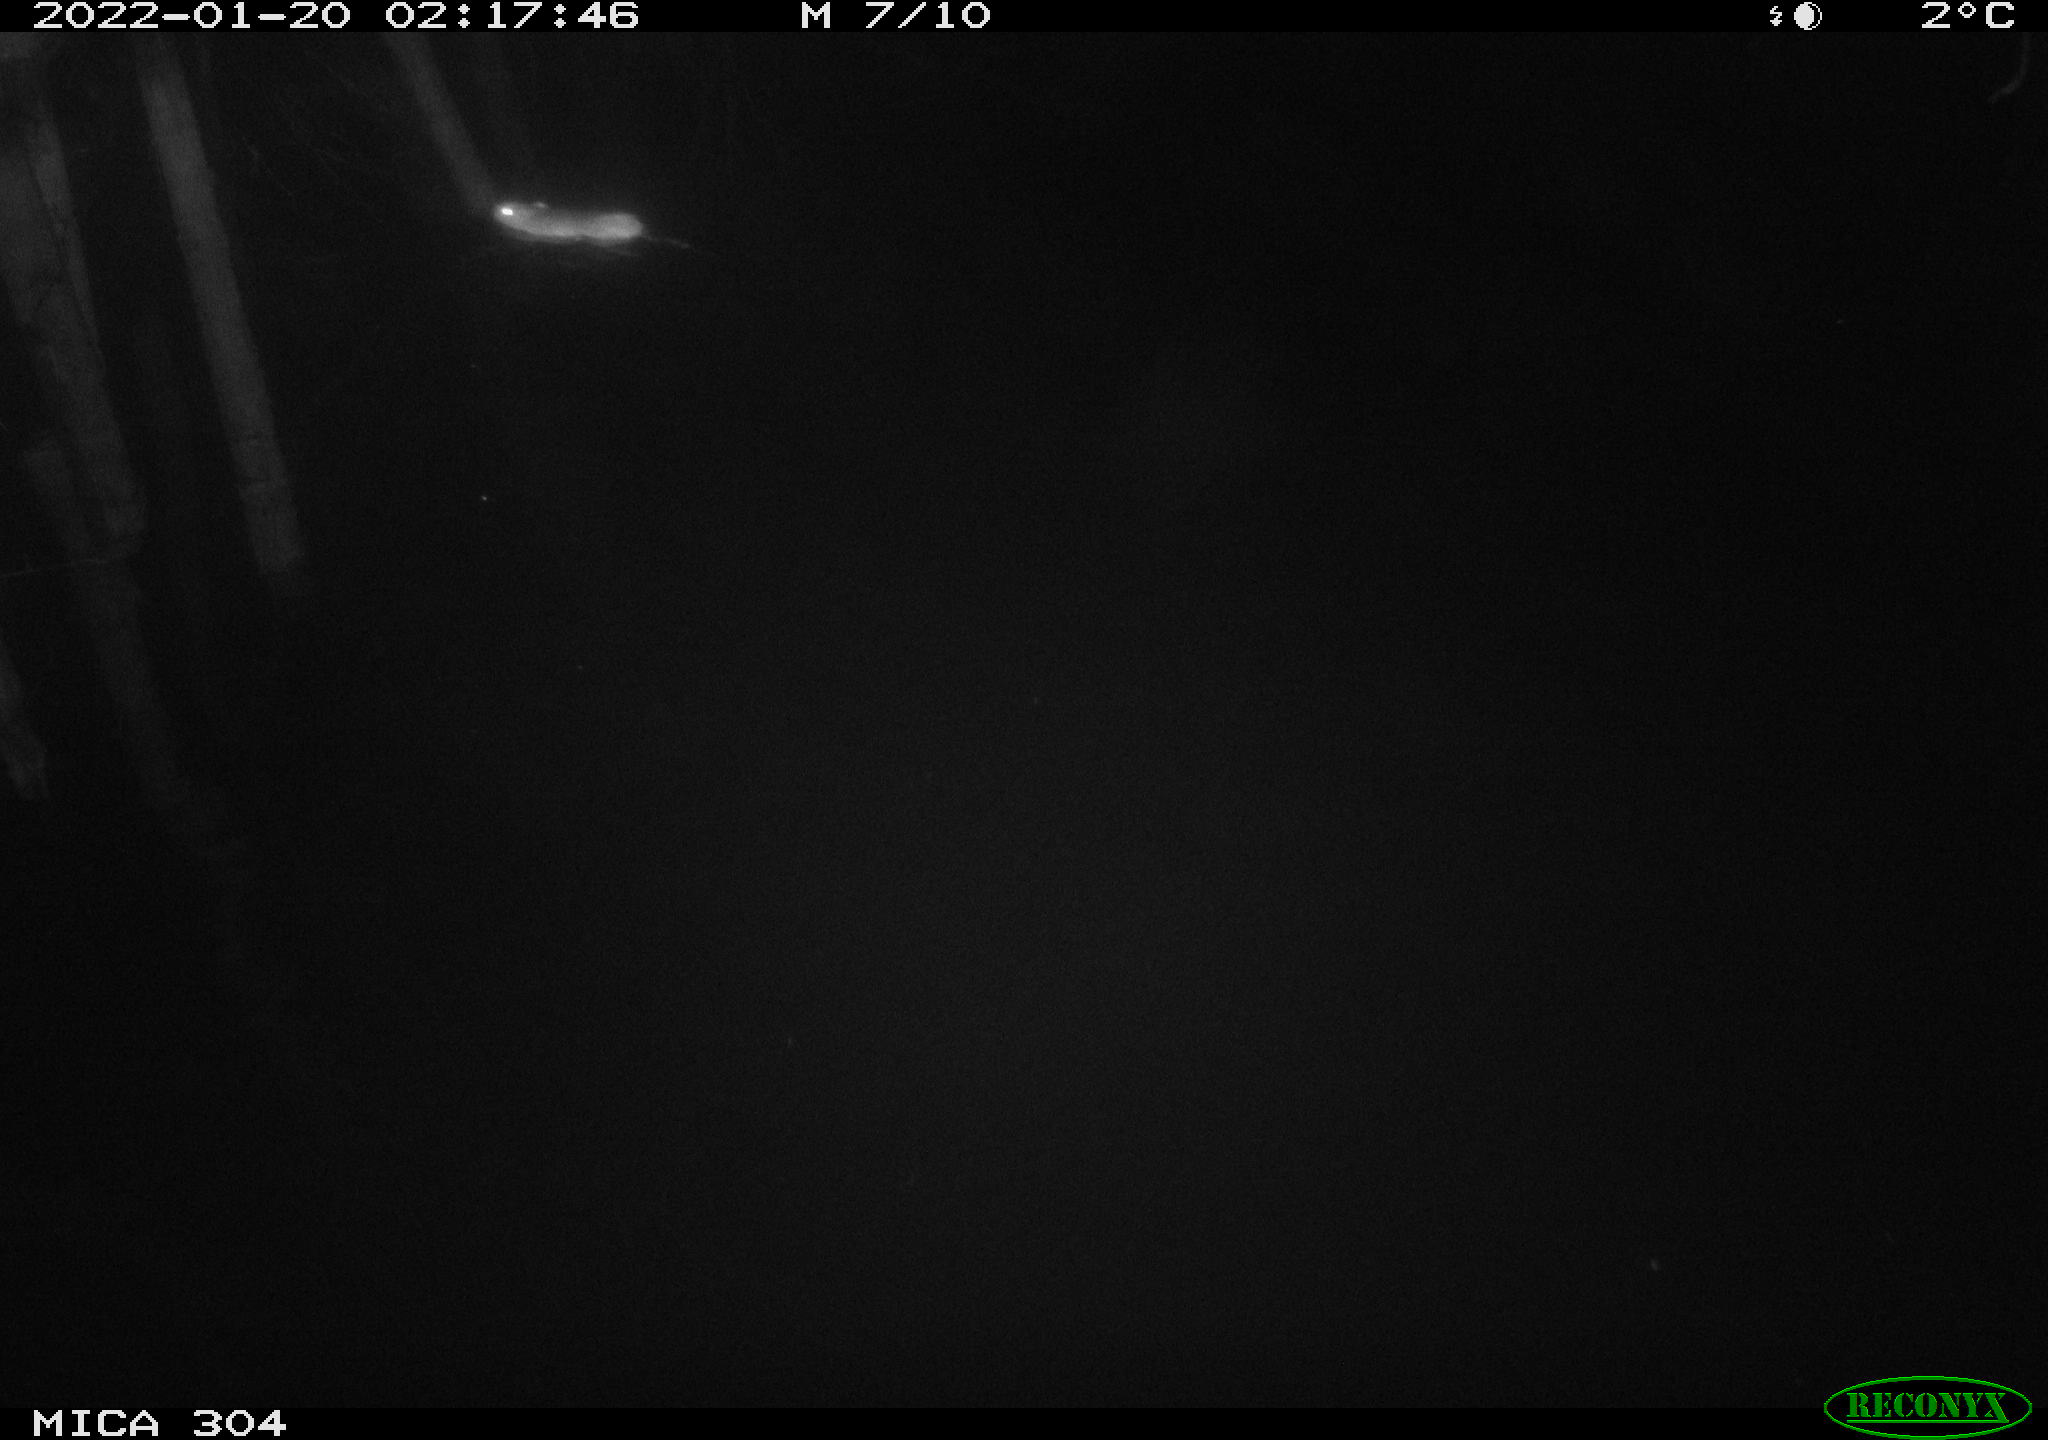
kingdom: Animalia
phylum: Chordata
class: Mammalia
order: Rodentia
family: Muridae
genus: Rattus
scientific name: Rattus norvegicus
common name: Brown rat
